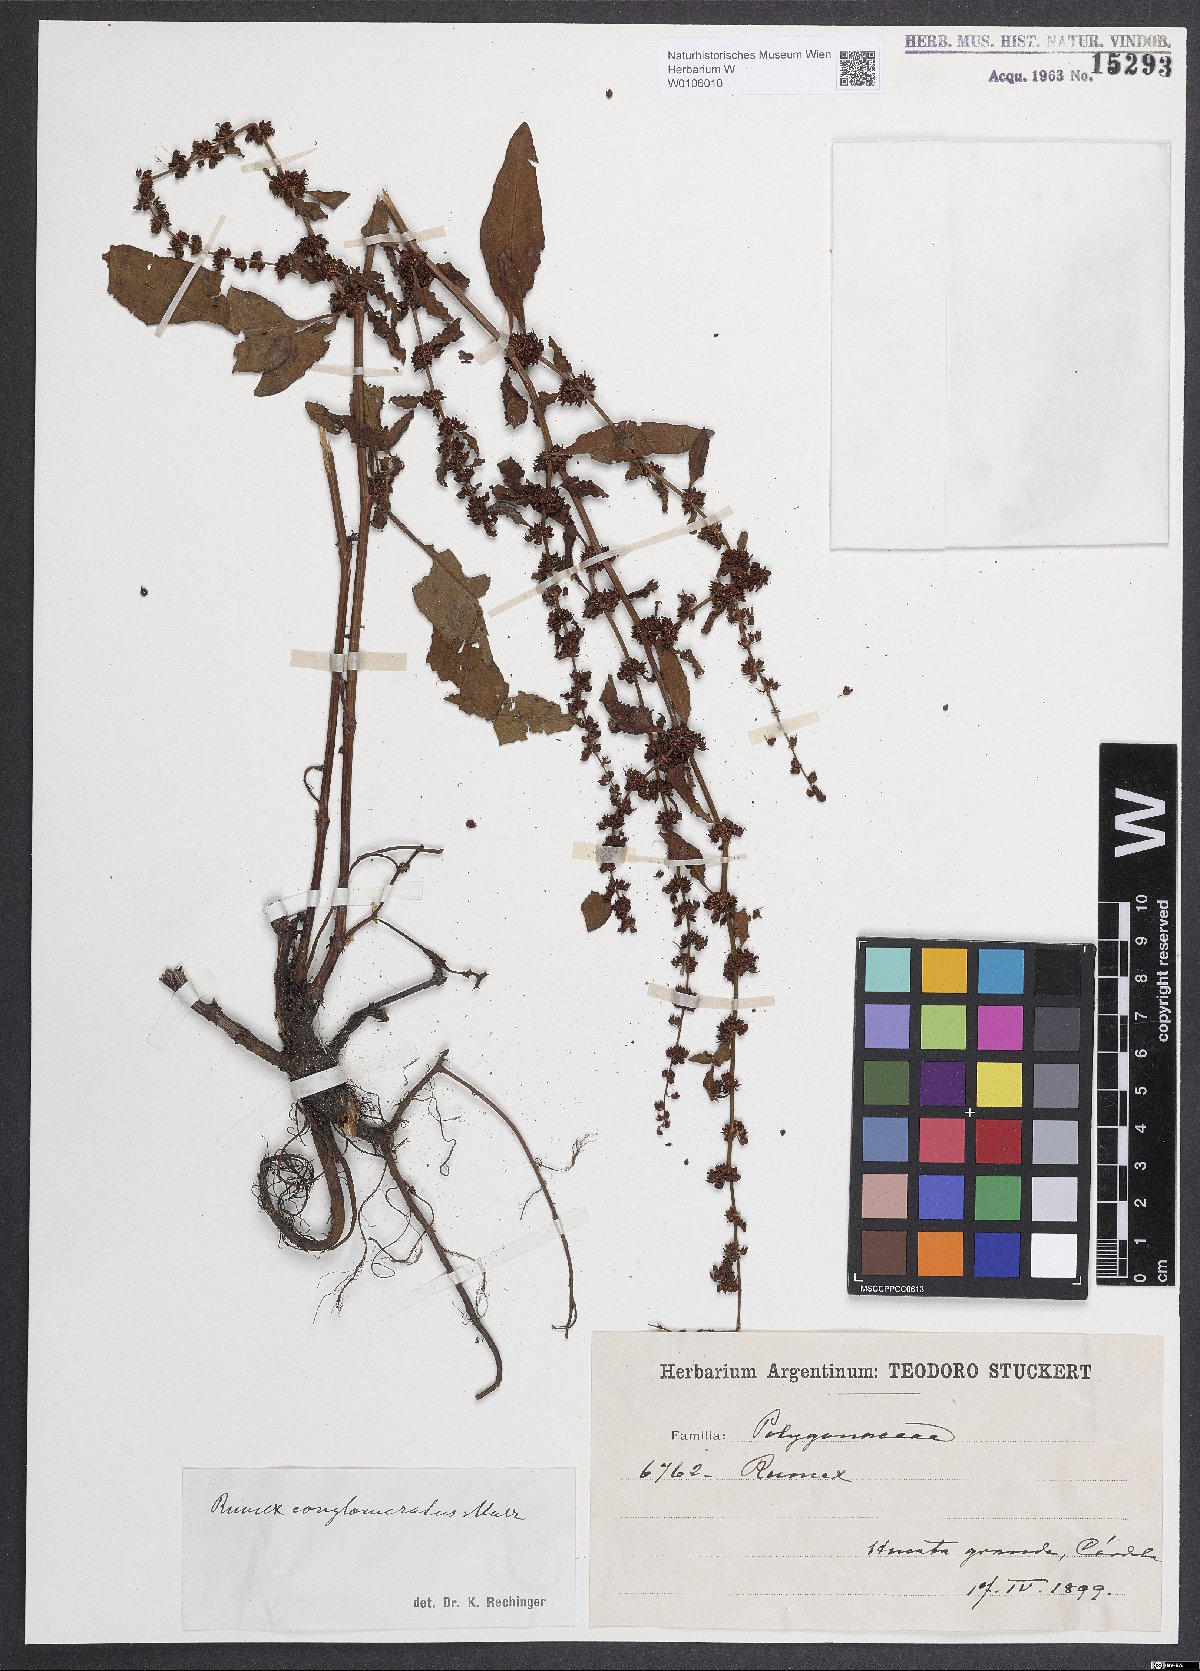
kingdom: Plantae
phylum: Tracheophyta
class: Magnoliopsida
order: Caryophyllales
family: Polygonaceae
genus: Rumex
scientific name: Rumex conglomeratus
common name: Clustered dock
